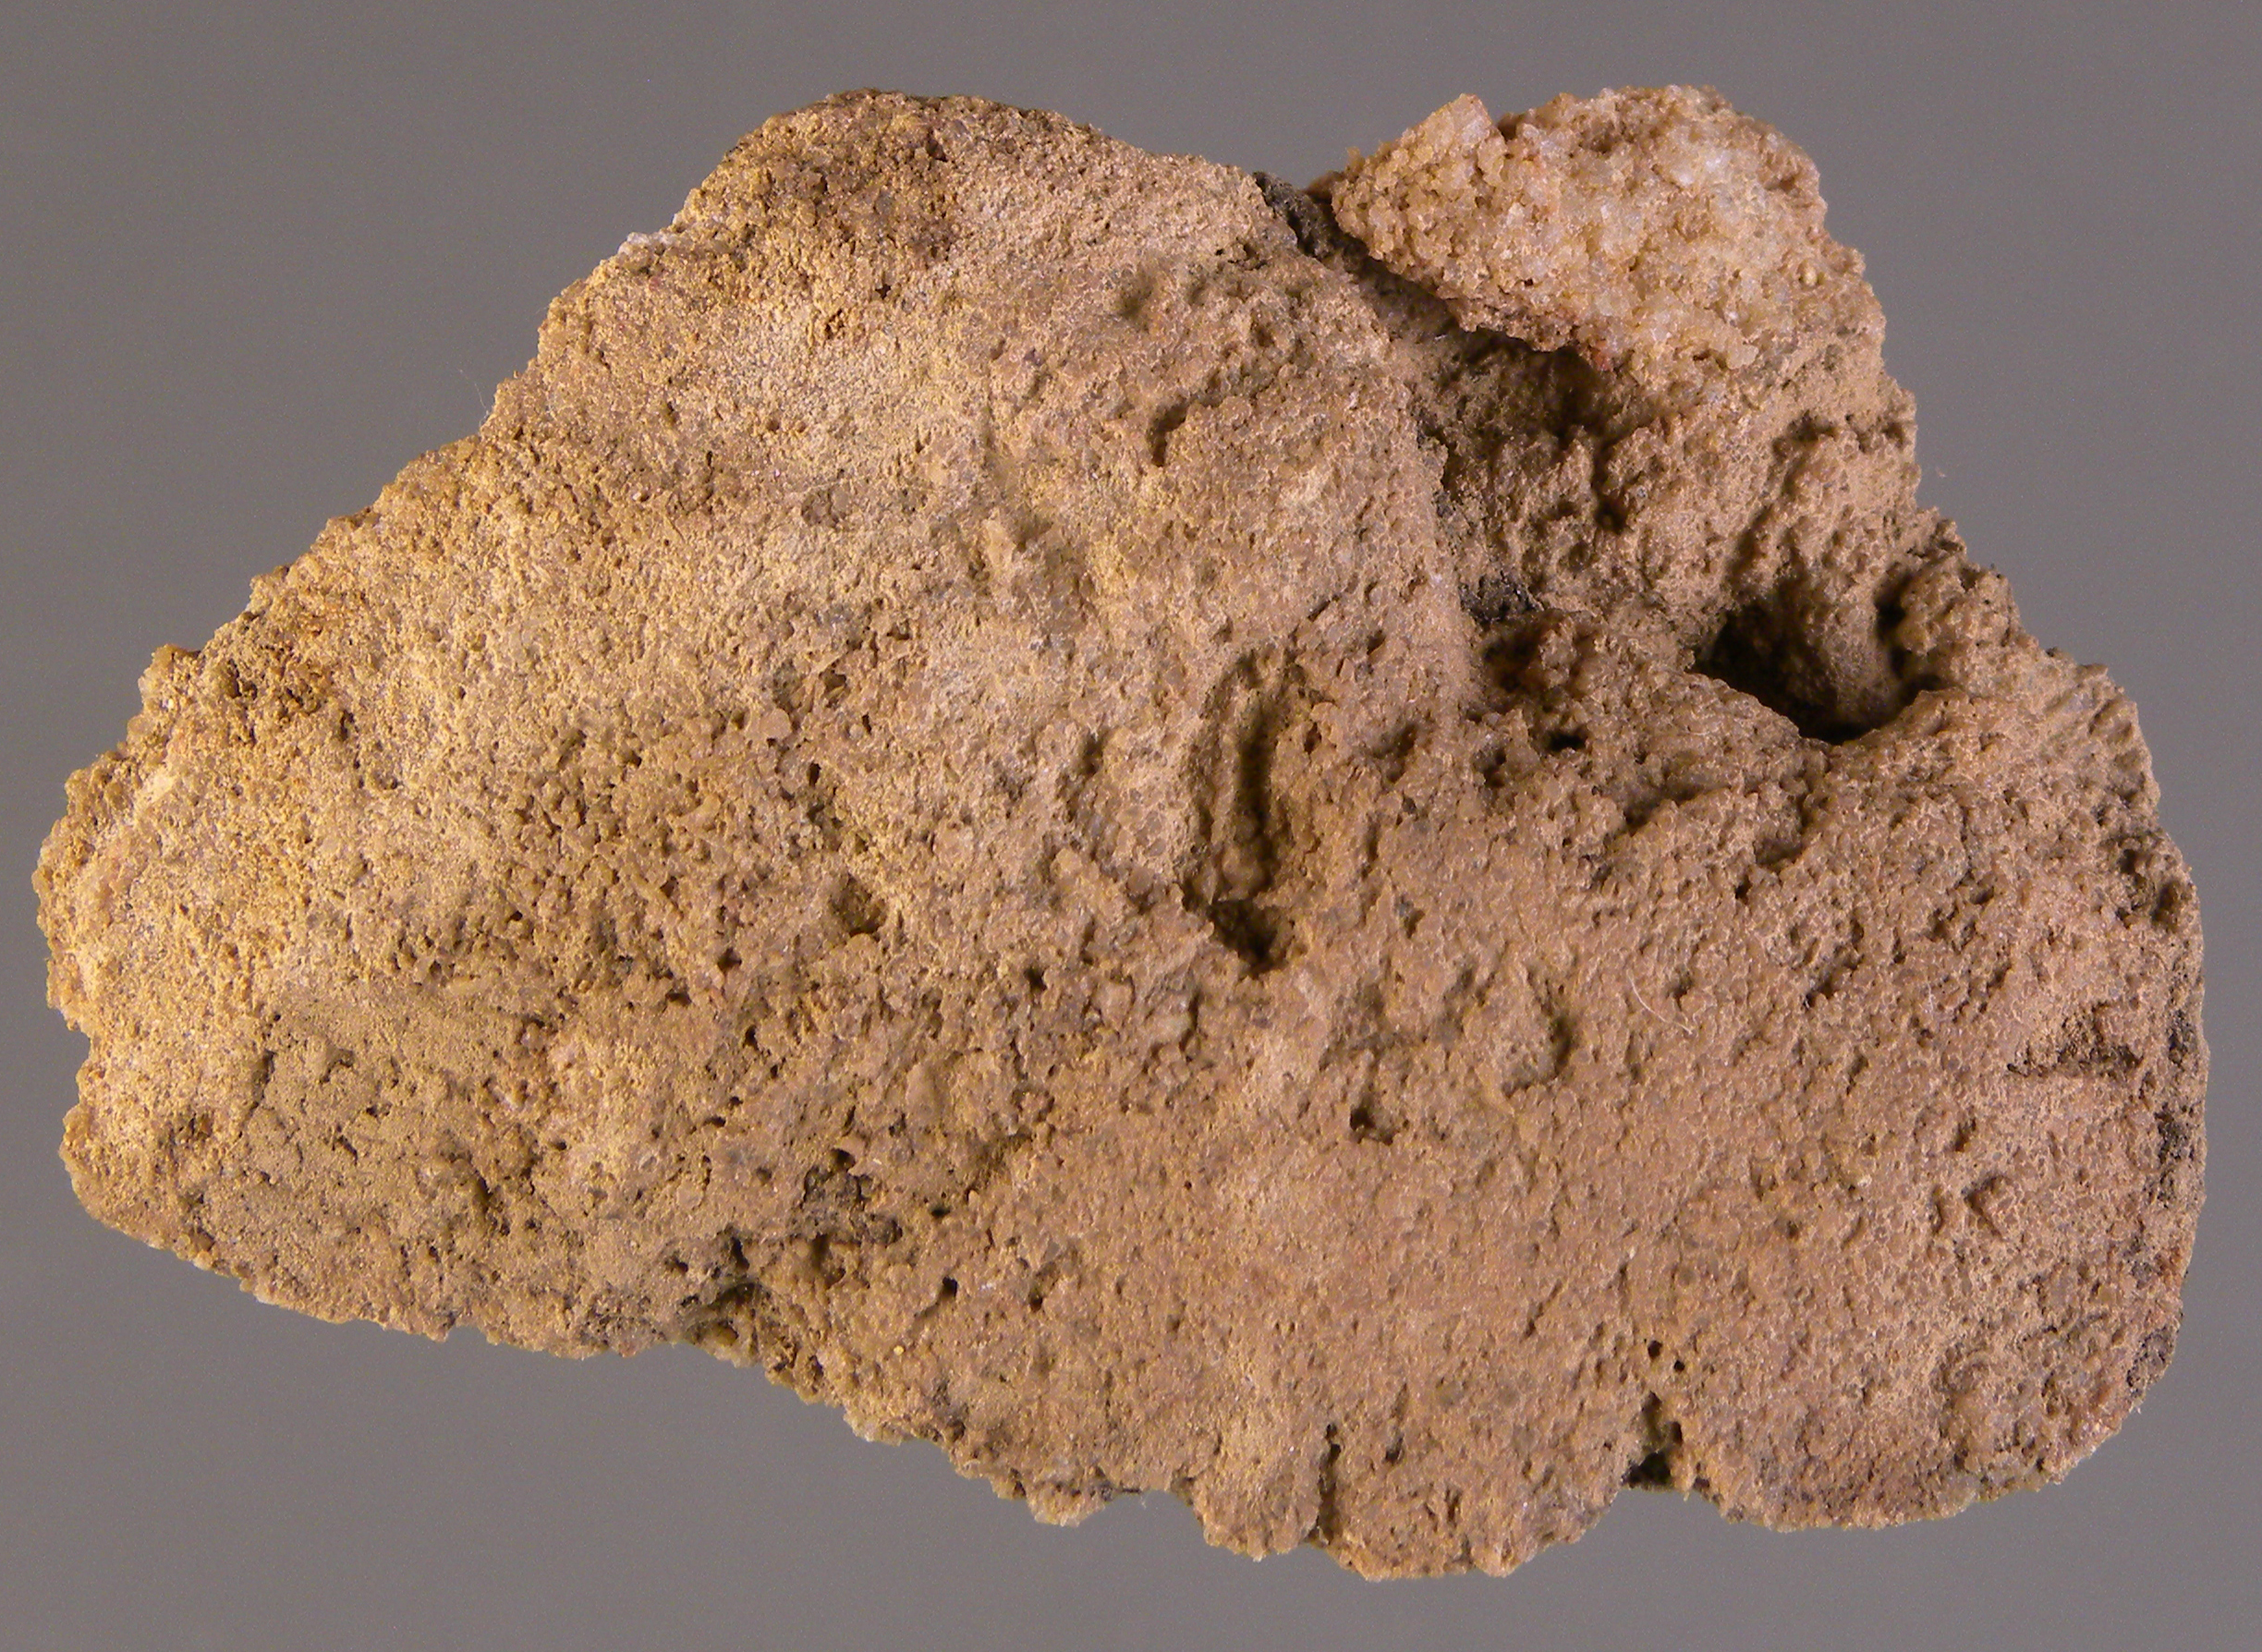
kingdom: Animalia
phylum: Mollusca
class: Bivalvia
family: Grammysiidae
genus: Grammysia
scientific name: Grammysia
